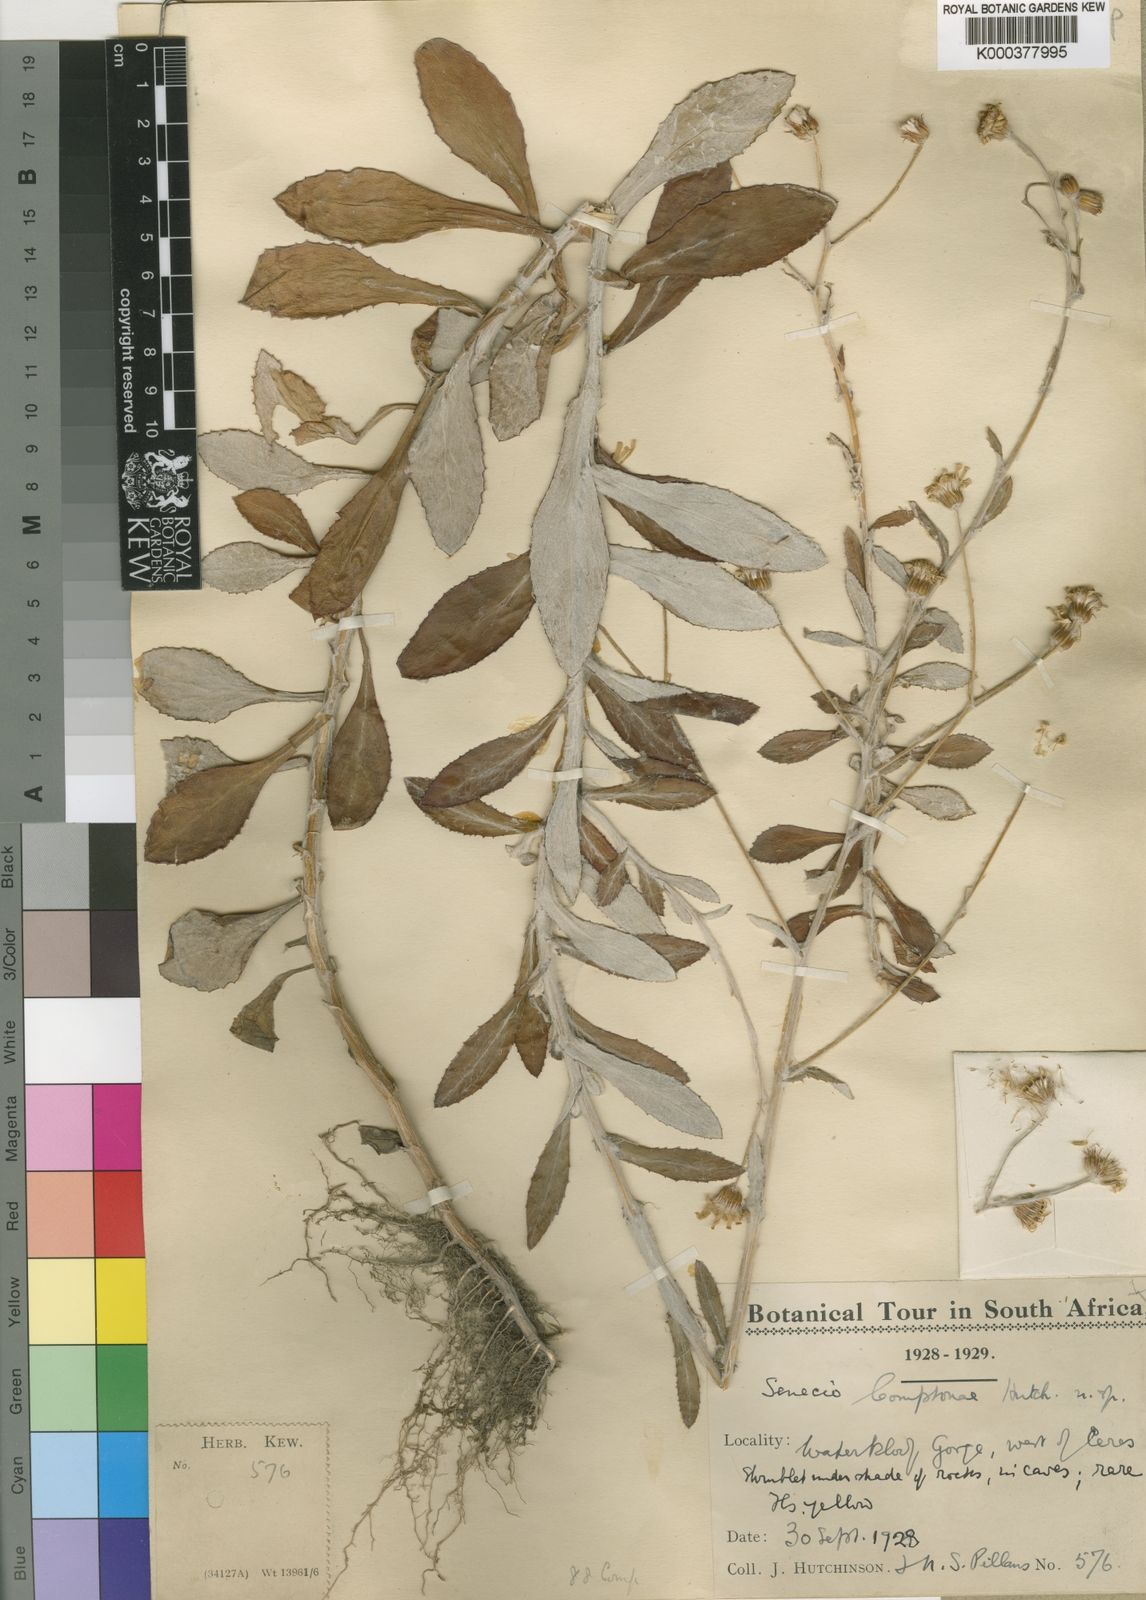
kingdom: Plantae
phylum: Tracheophyta
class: Magnoliopsida
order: Asterales
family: Asteraceae
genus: Senecio
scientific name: Senecio
